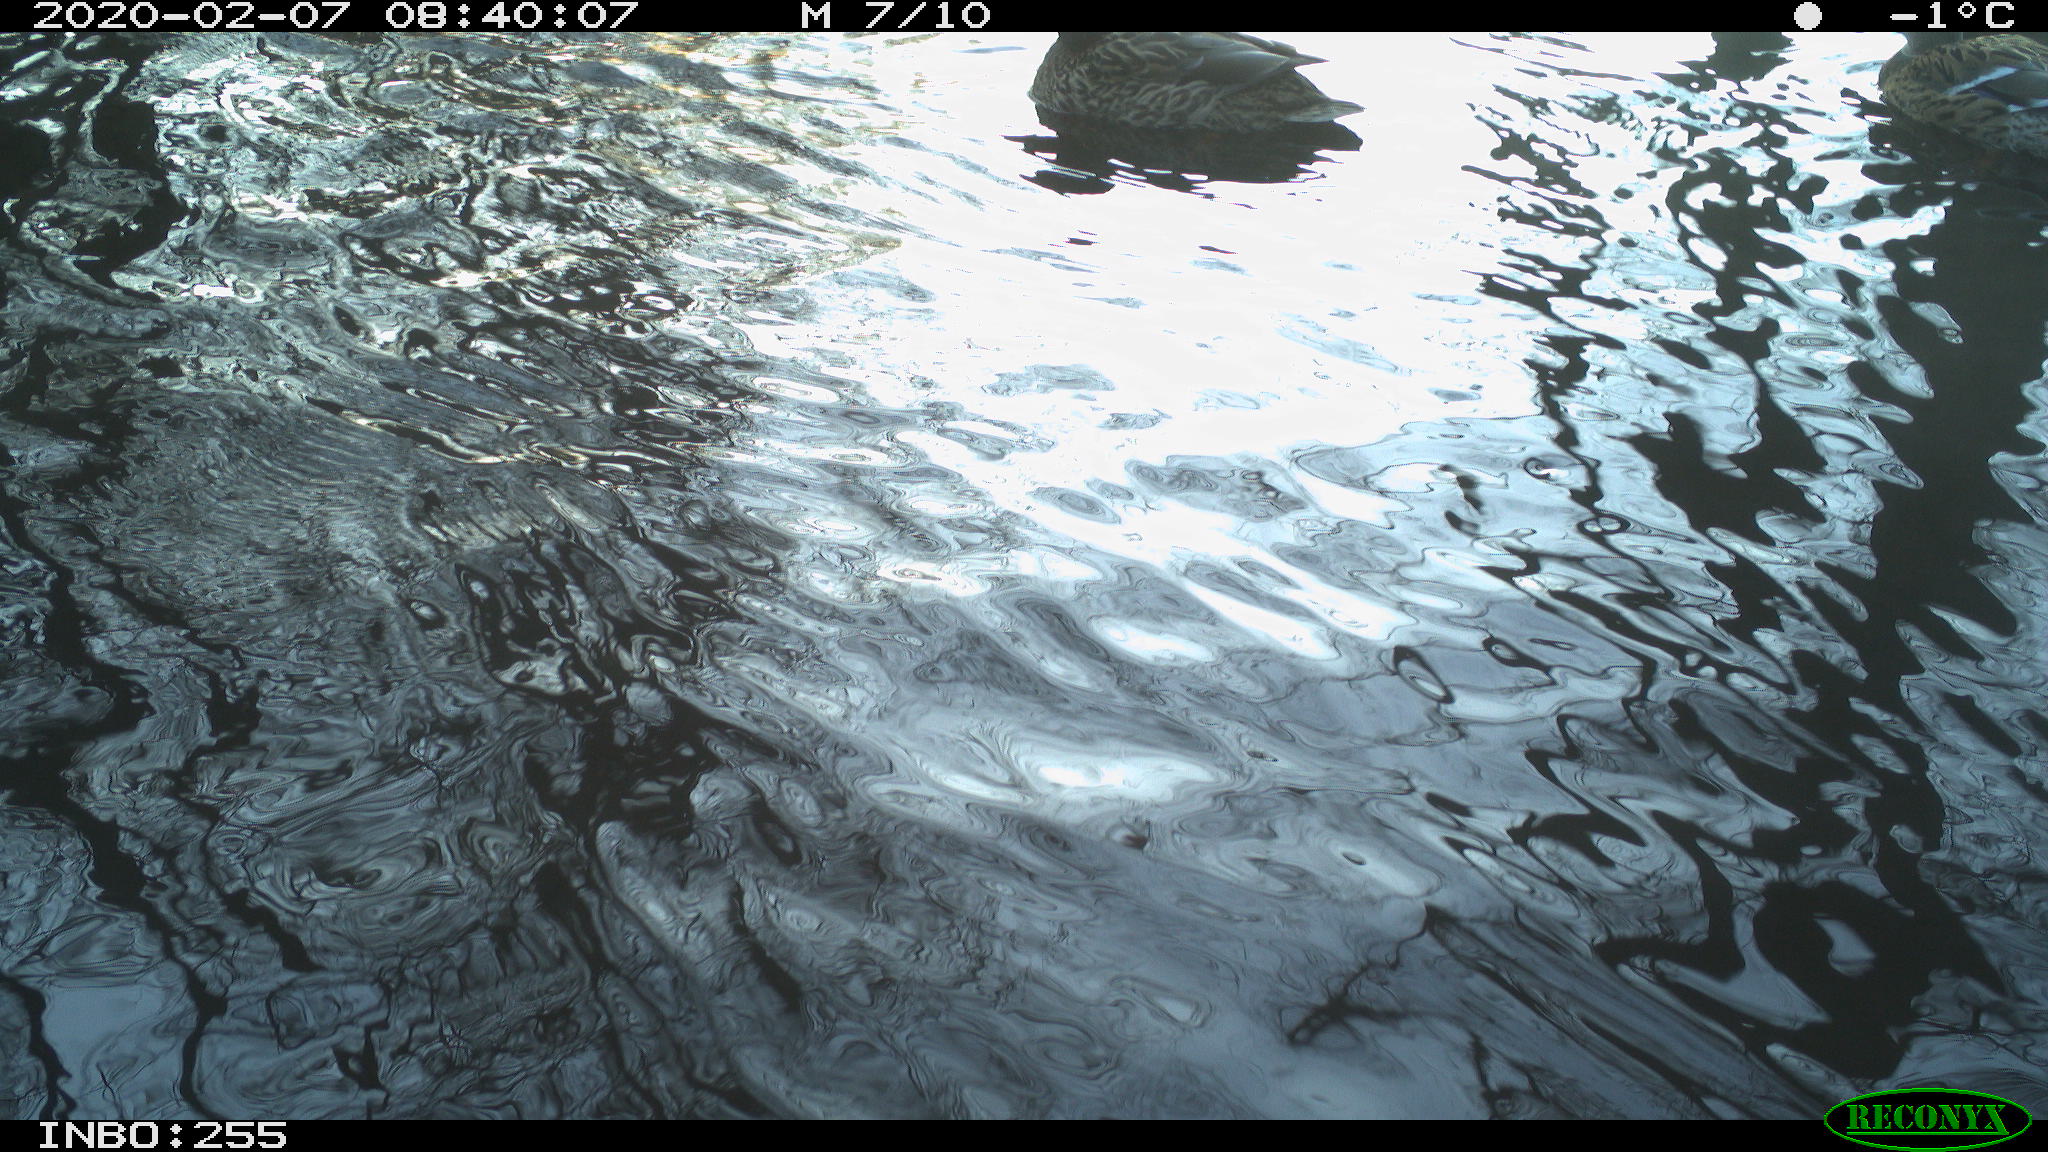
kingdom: Animalia
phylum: Chordata
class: Aves
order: Anseriformes
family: Anatidae
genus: Anas
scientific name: Anas platyrhynchos
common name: Mallard
